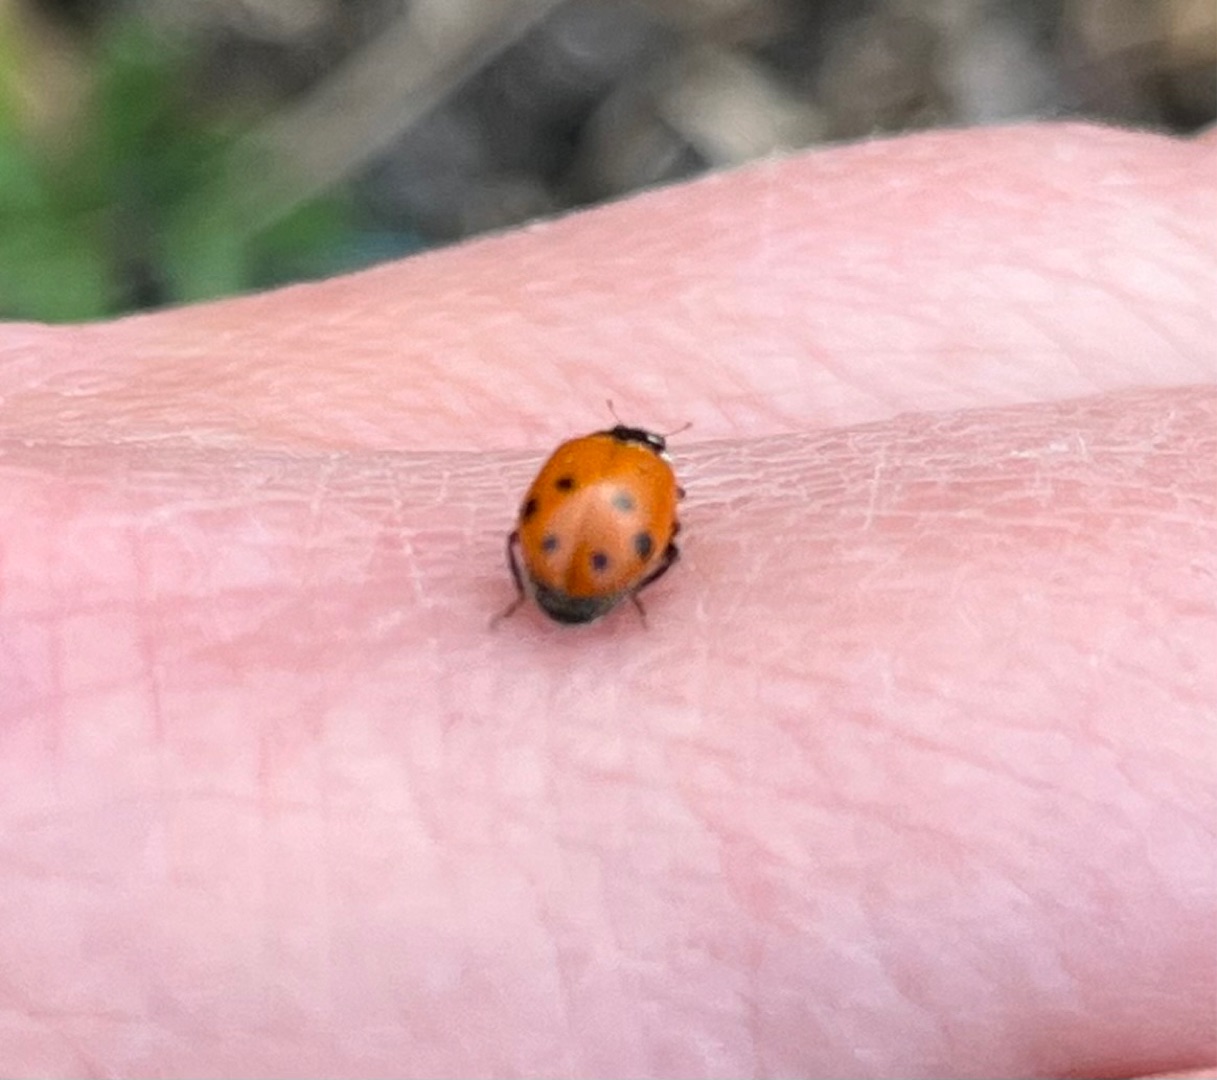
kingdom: Animalia
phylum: Arthropoda
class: Insecta
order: Coleoptera
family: Coccinellidae
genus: Hippodamia
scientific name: Hippodamia variegata
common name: Adonis' mariehøne
